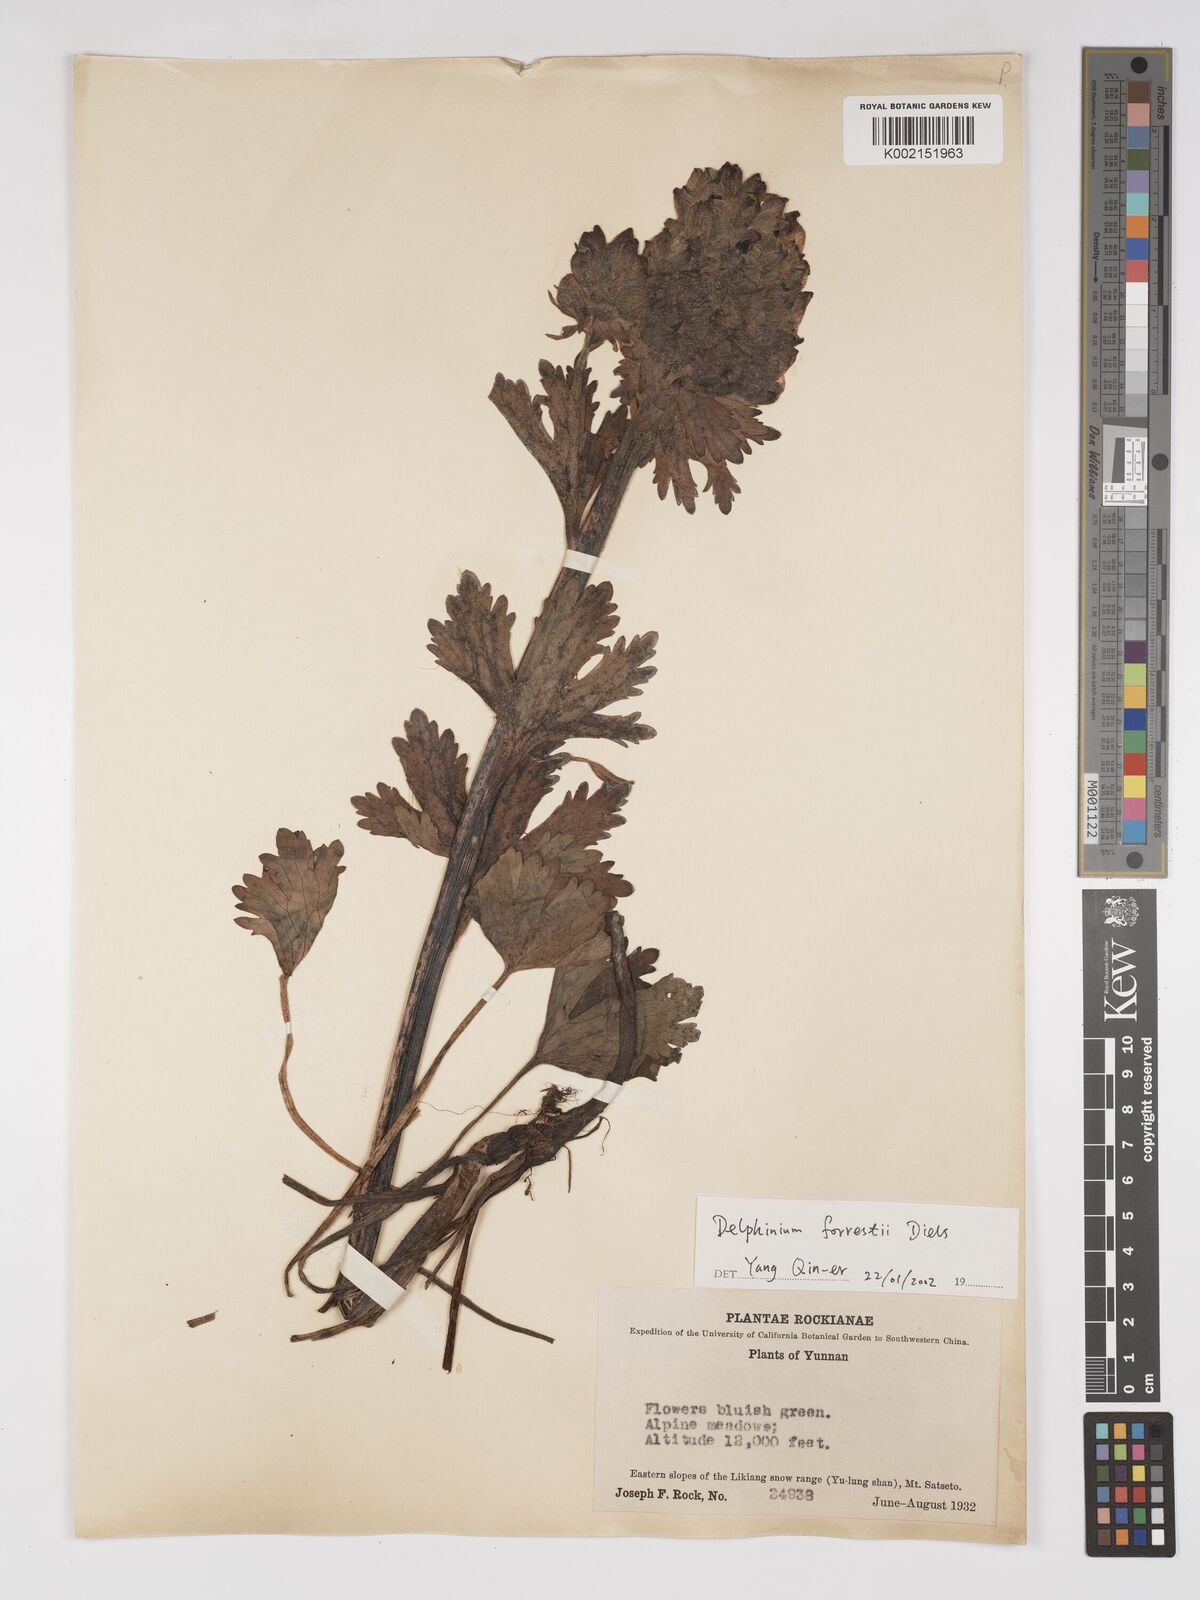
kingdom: Plantae
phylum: Tracheophyta
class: Magnoliopsida
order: Ranunculales
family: Ranunculaceae
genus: Delphinium
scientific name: Delphinium trichophorum
